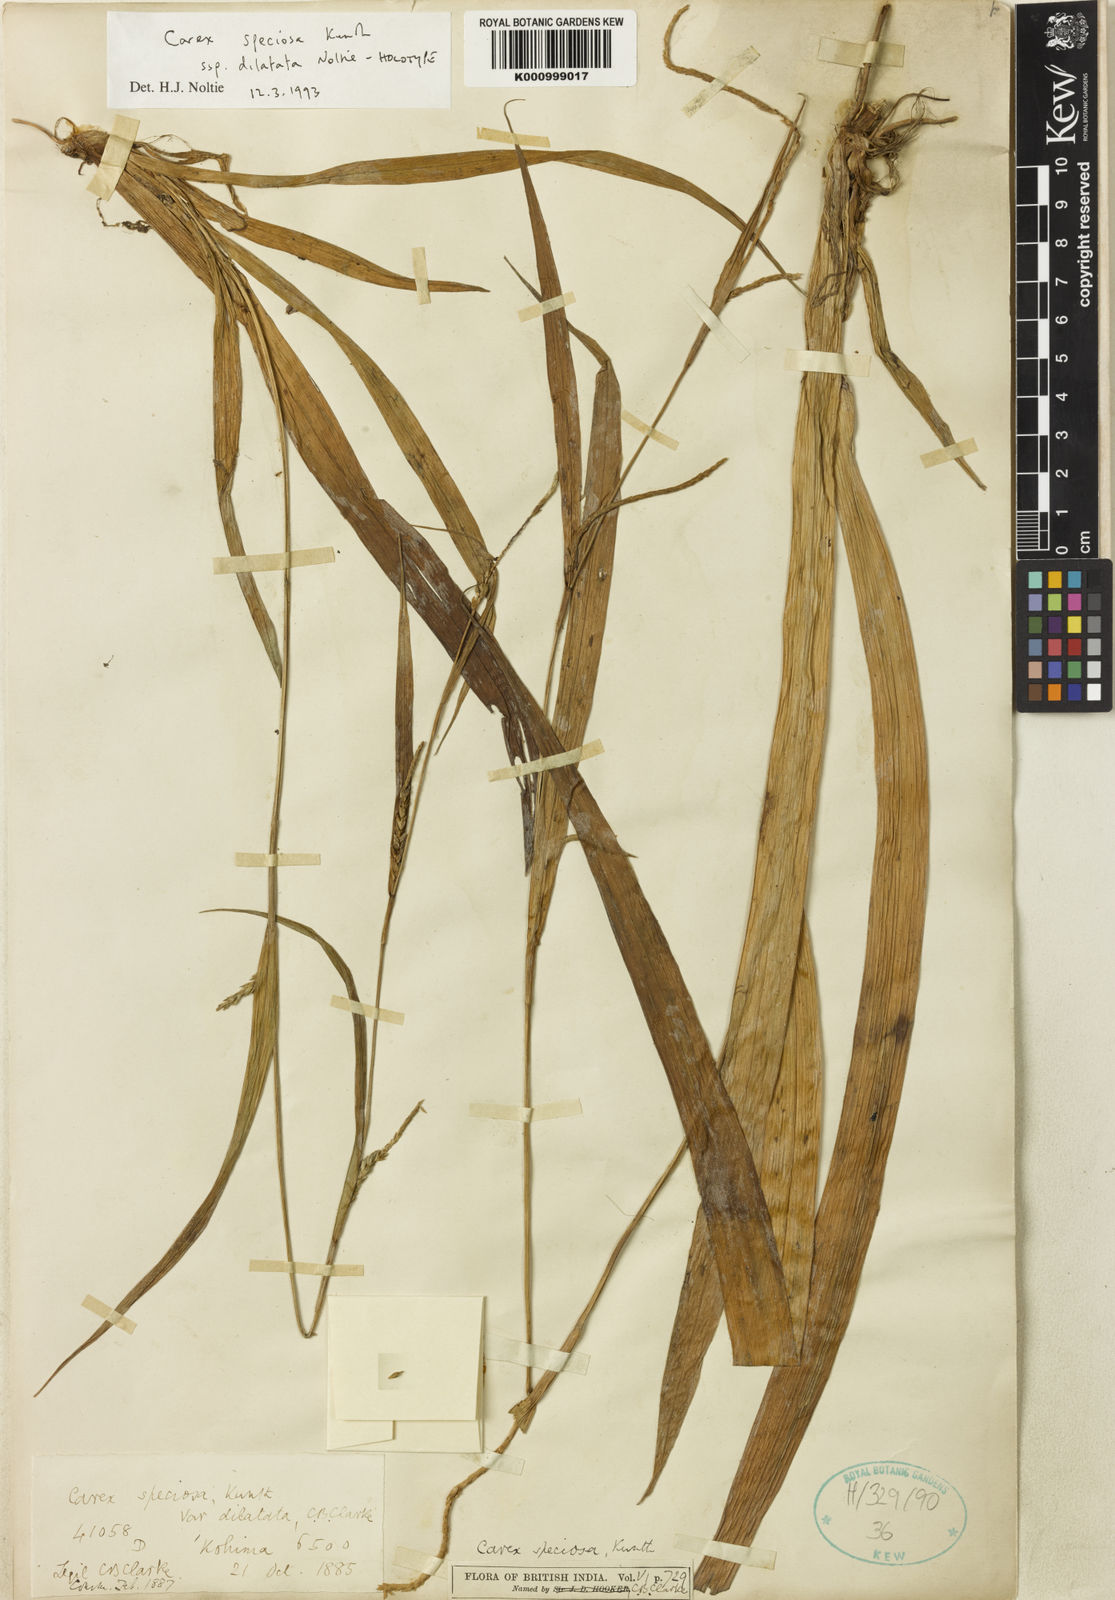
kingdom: Plantae
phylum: Tracheophyta
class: Liliopsida
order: Poales
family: Cyperaceae
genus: Carex
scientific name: Carex speciosa
